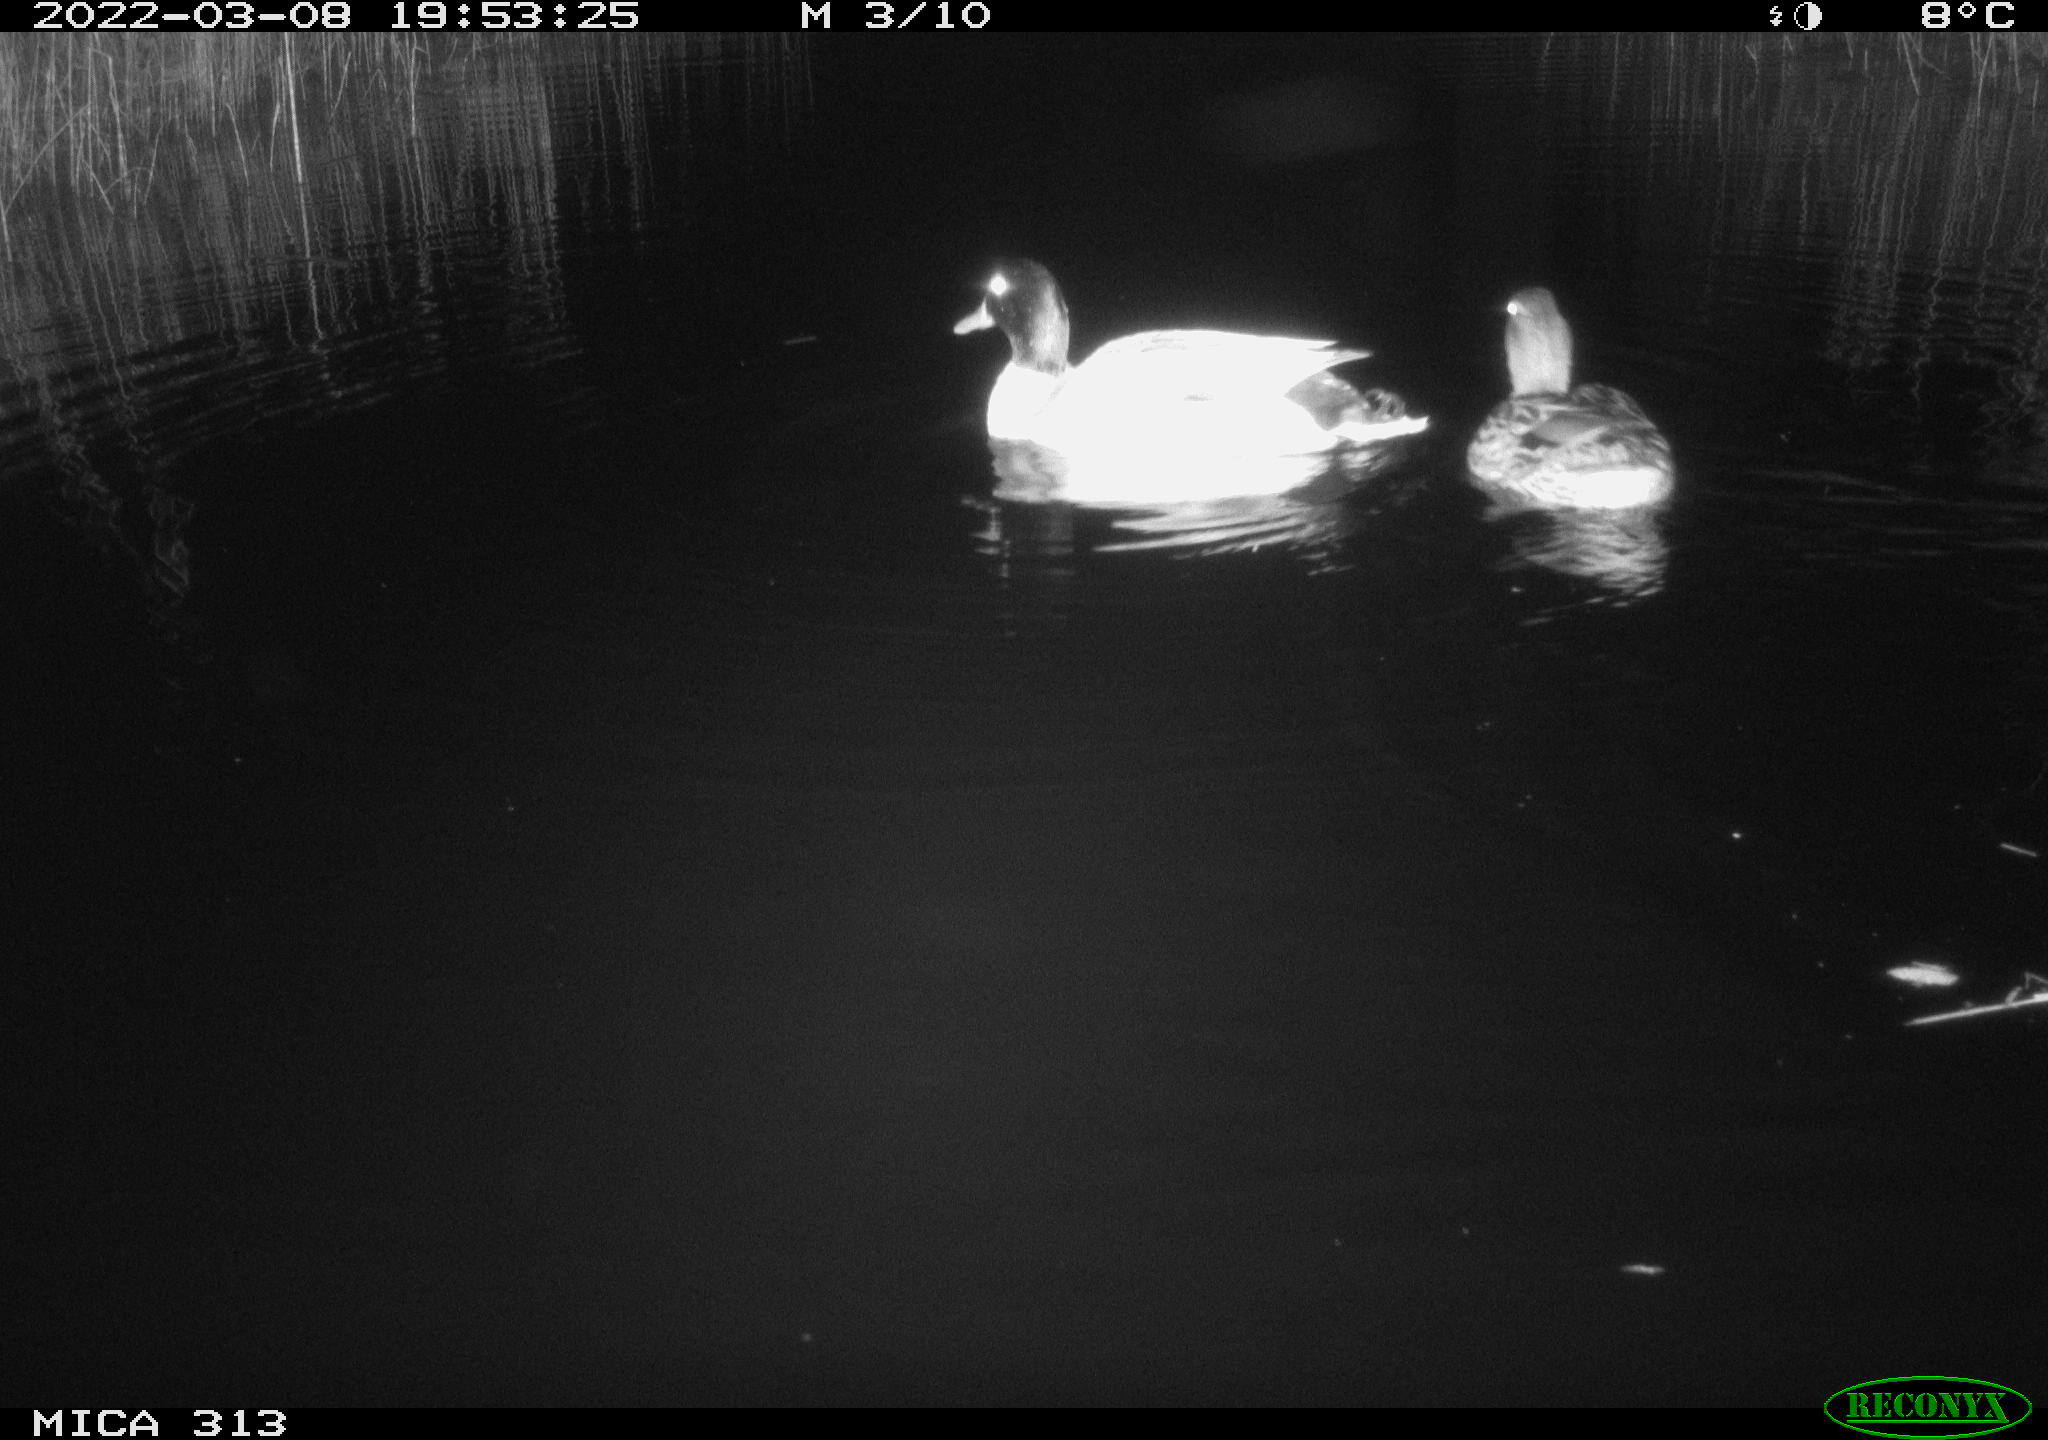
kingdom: Animalia
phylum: Chordata
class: Aves
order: Anseriformes
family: Anatidae
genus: Anas
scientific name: Anas platyrhynchos
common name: Mallard
